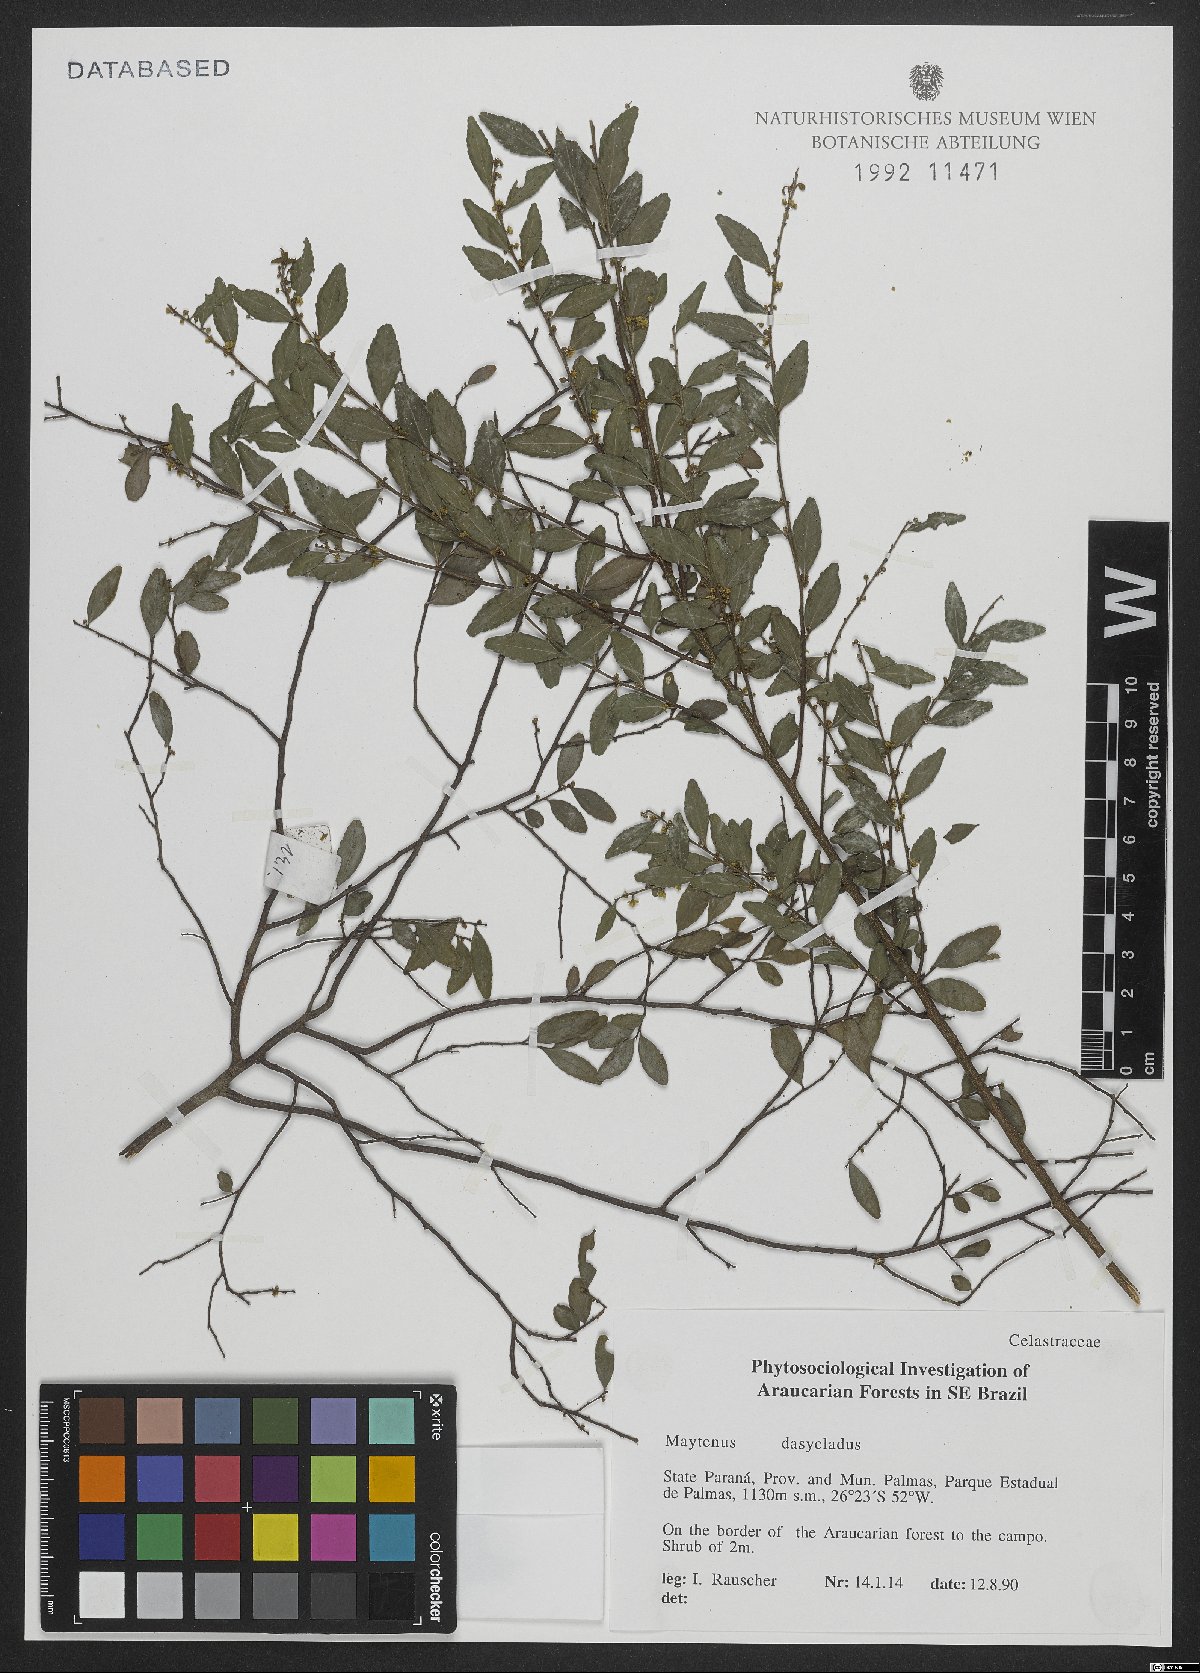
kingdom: Plantae
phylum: Tracheophyta
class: Magnoliopsida
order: Celastrales
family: Celastraceae
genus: Monteverdia
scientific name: Monteverdia dasyclados
